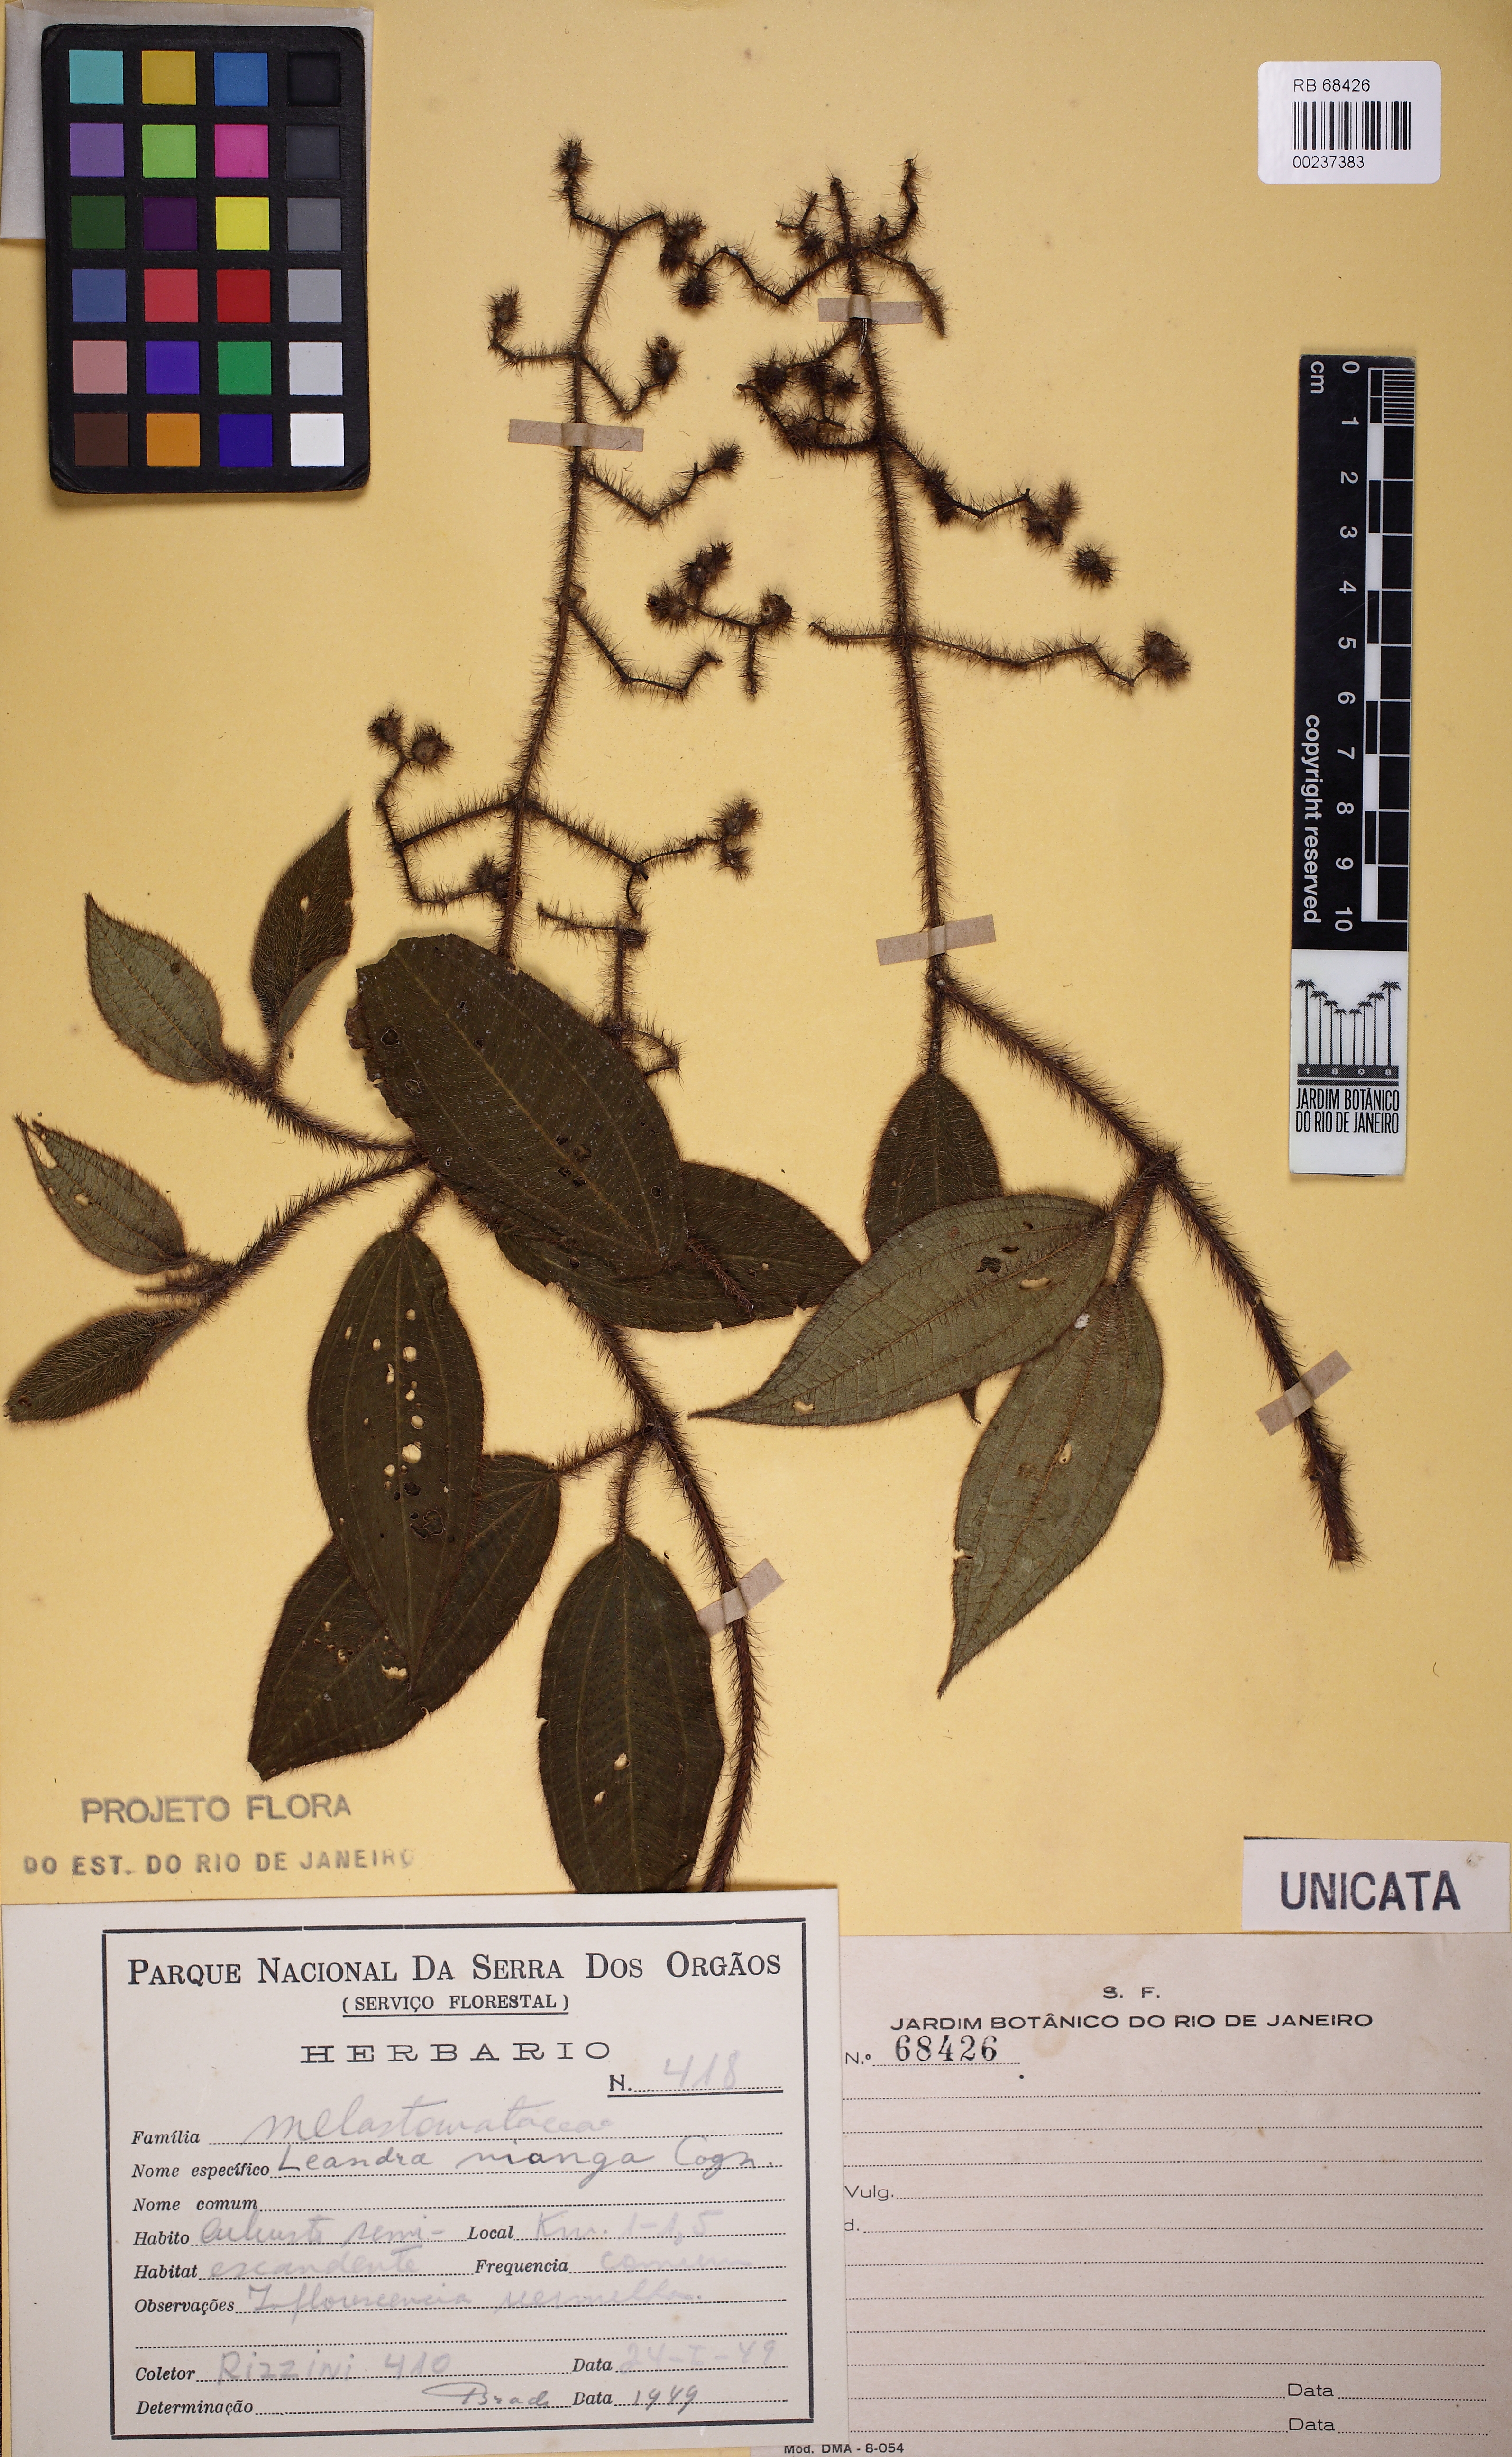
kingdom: Plantae
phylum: Tracheophyta
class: Magnoliopsida
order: Myrtales
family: Melastomataceae
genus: Miconia
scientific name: Miconia nianga
